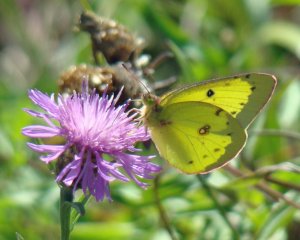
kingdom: Animalia
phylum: Arthropoda
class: Insecta
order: Lepidoptera
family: Pieridae
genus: Colias
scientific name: Colias philodice
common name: Clouded Sulphur
